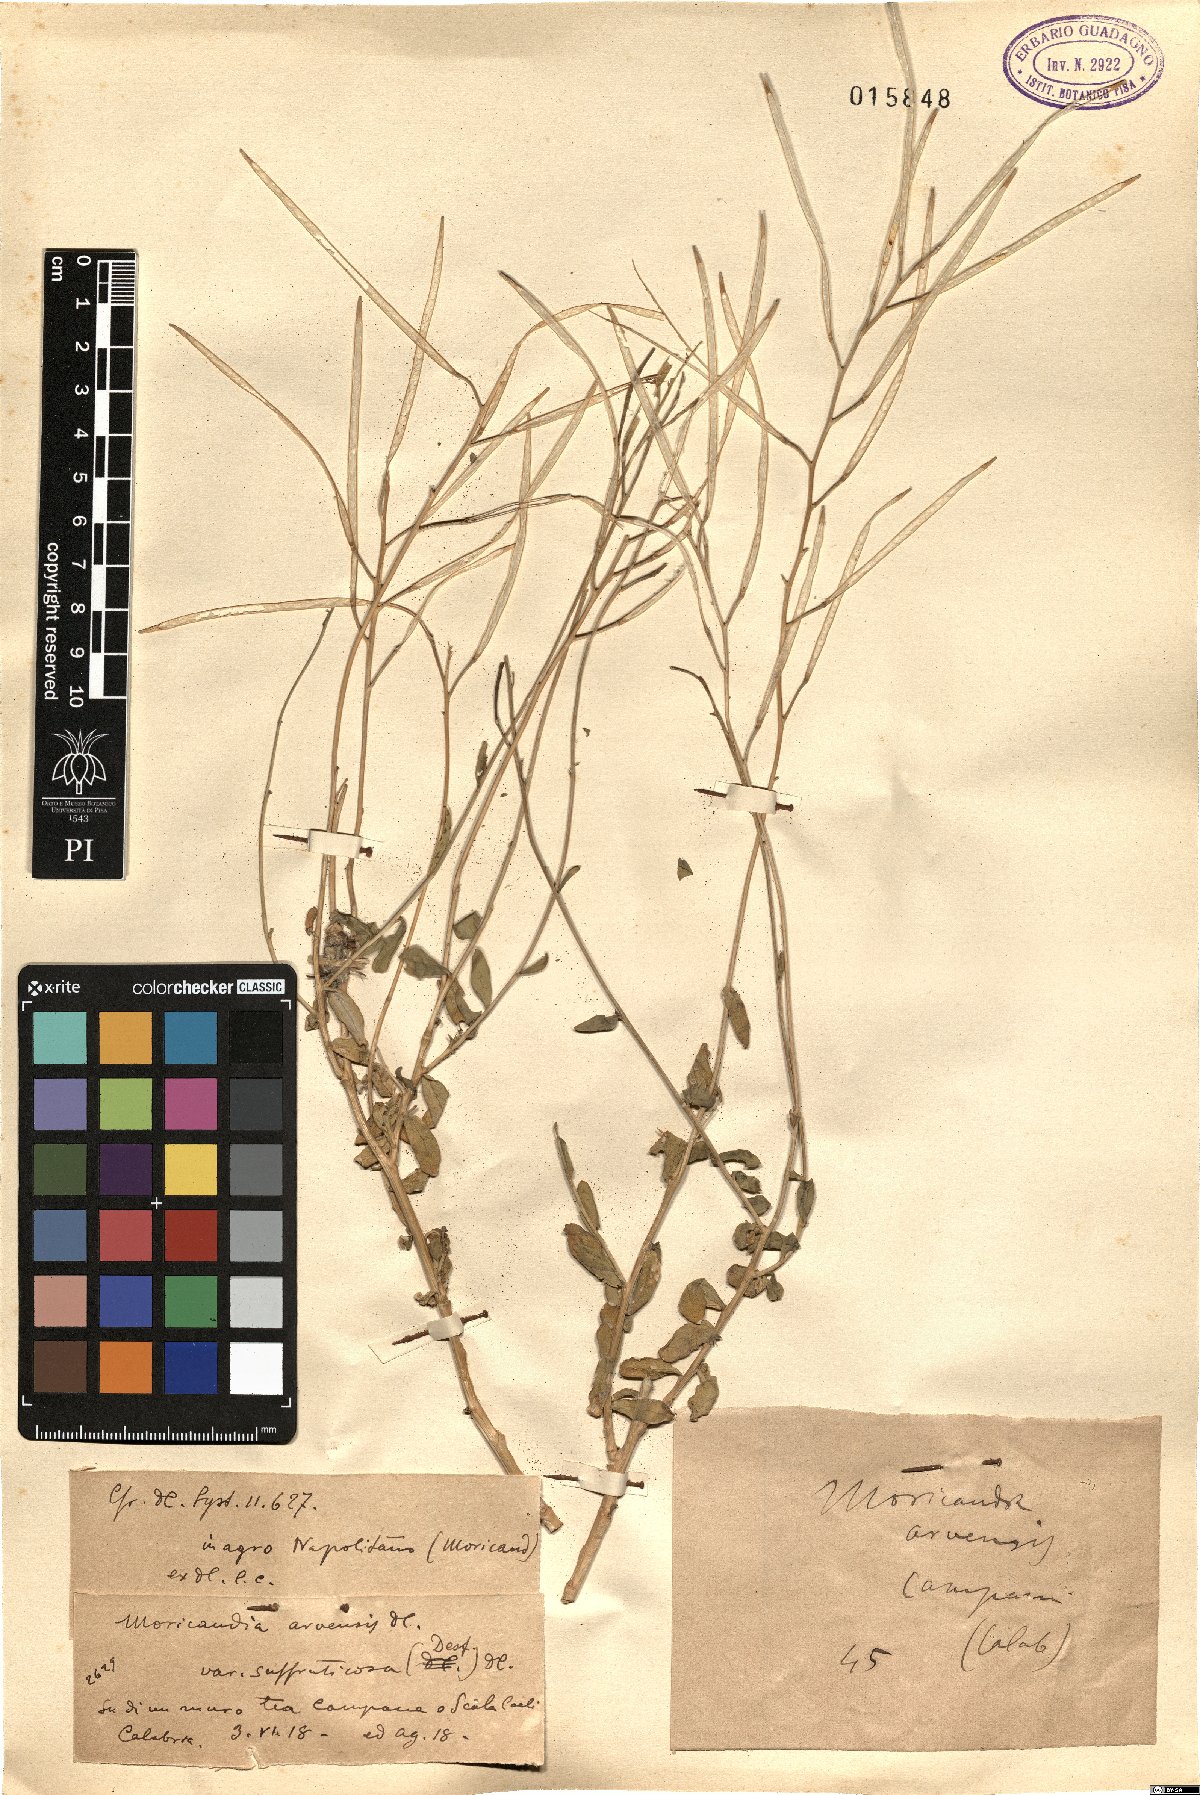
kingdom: Plantae
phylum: Tracheophyta
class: Magnoliopsida
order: Brassicales
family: Brassicaceae
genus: Moricandia
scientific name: Moricandia suffruticosa
